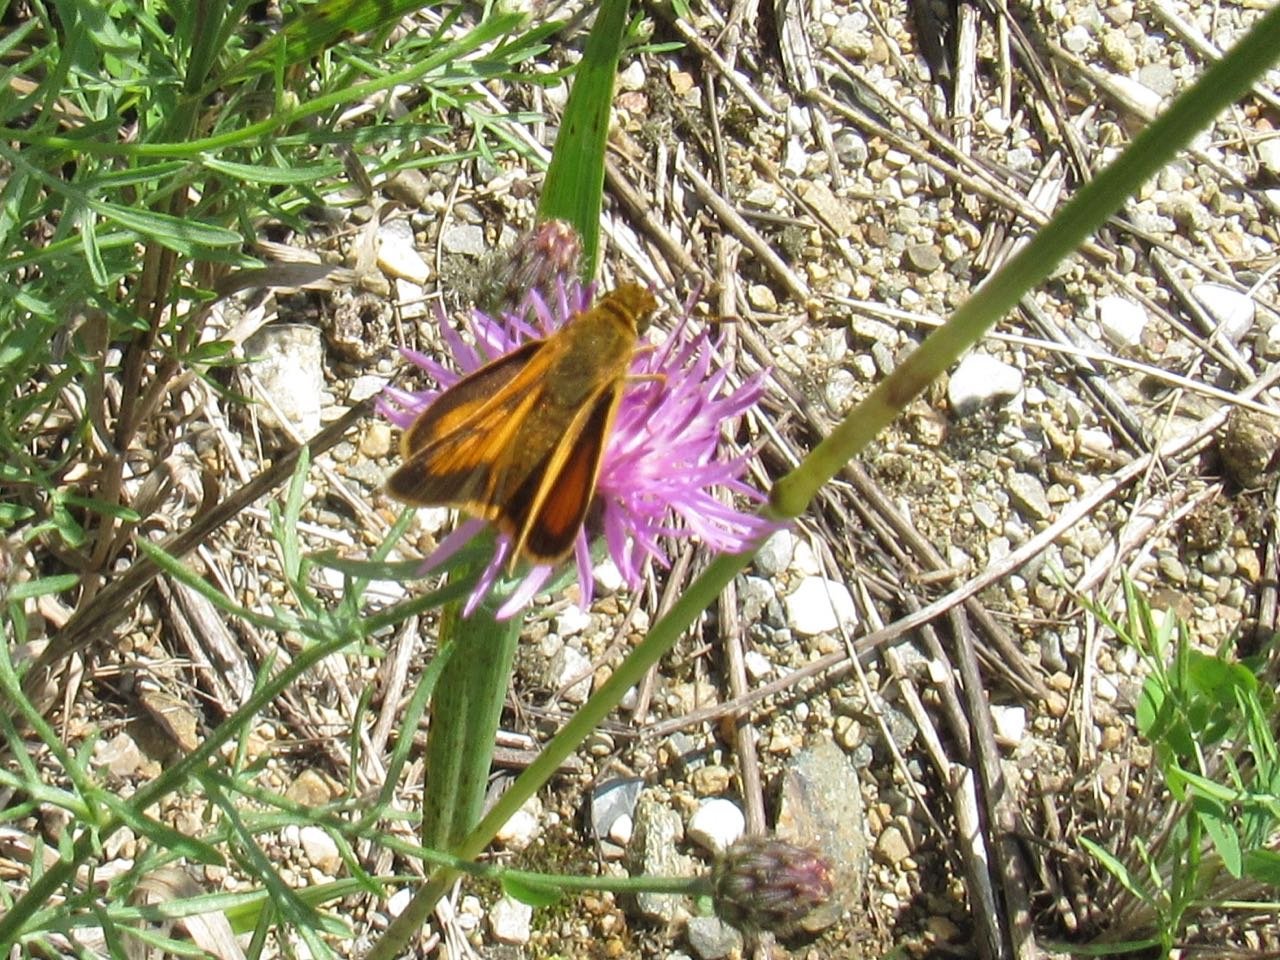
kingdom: Animalia
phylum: Arthropoda
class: Insecta
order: Lepidoptera
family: Hesperiidae
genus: Atrytone
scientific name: Atrytone delaware
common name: Delaware Skipper
